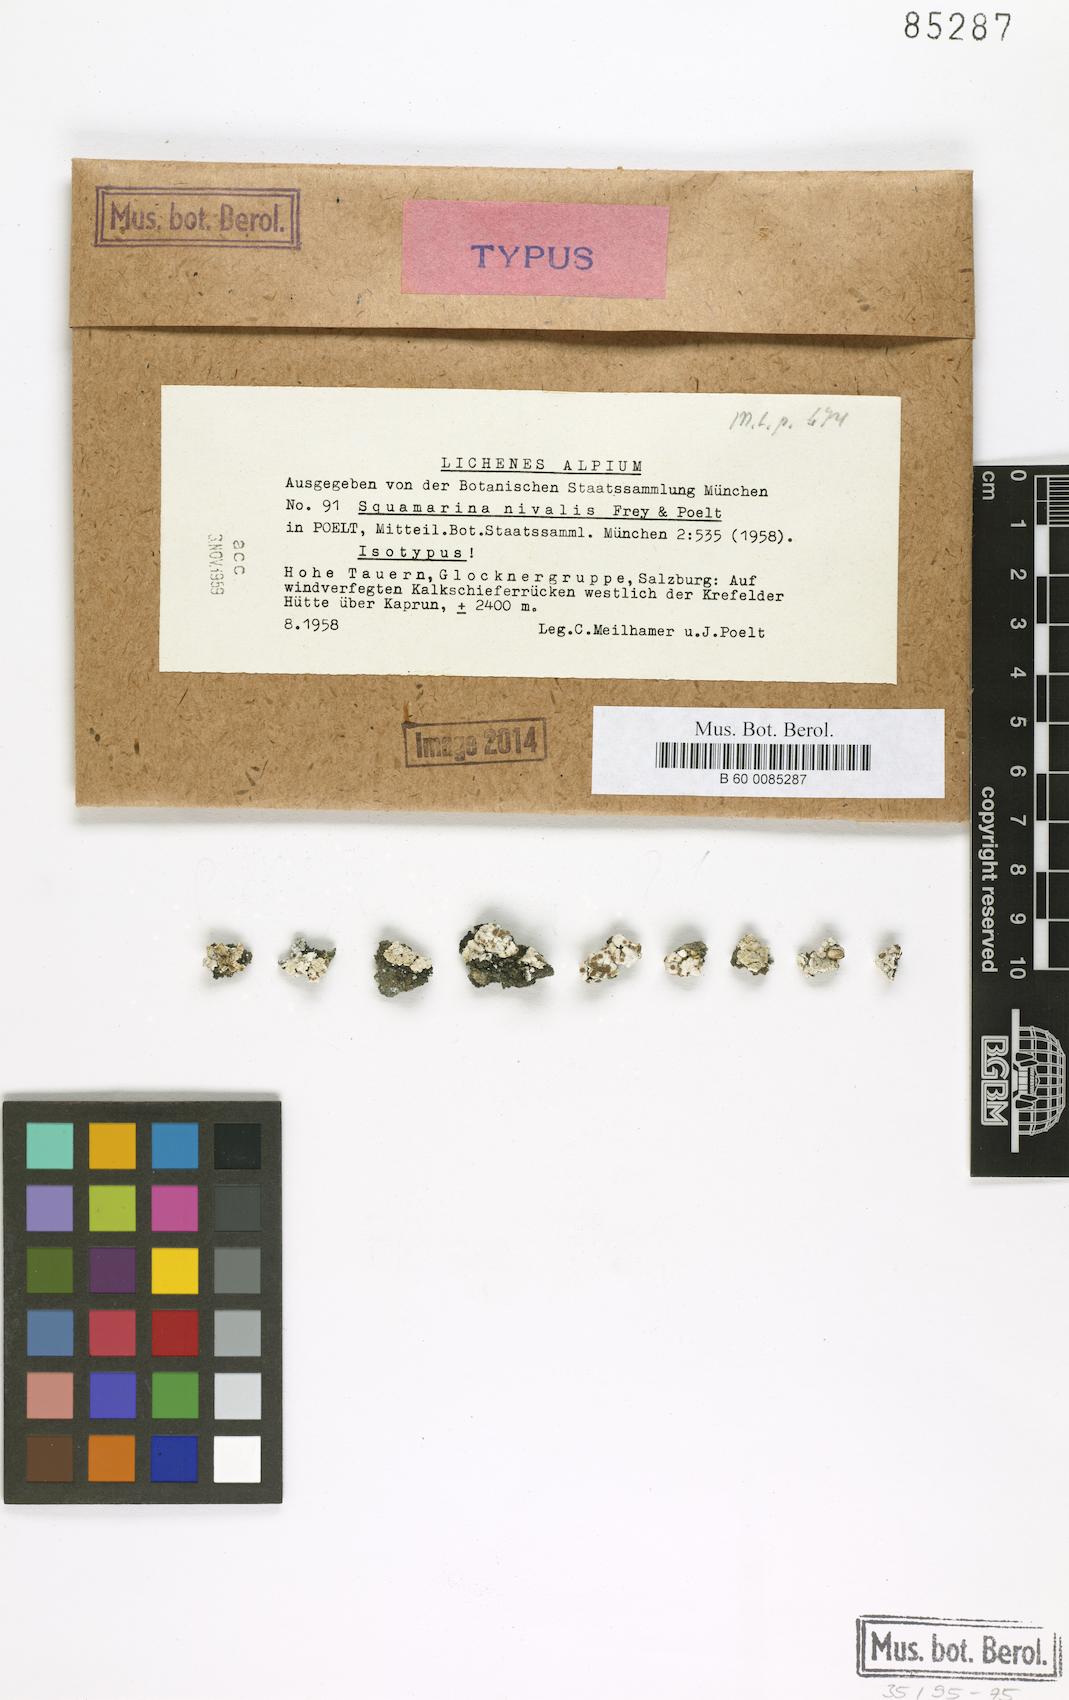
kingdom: Fungi
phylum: Ascomycota
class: Lecanoromycetes
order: Lecanorales
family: Stereocaulaceae
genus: Squamarina
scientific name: Squamarina lentigera
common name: Scaly breck-lichen
